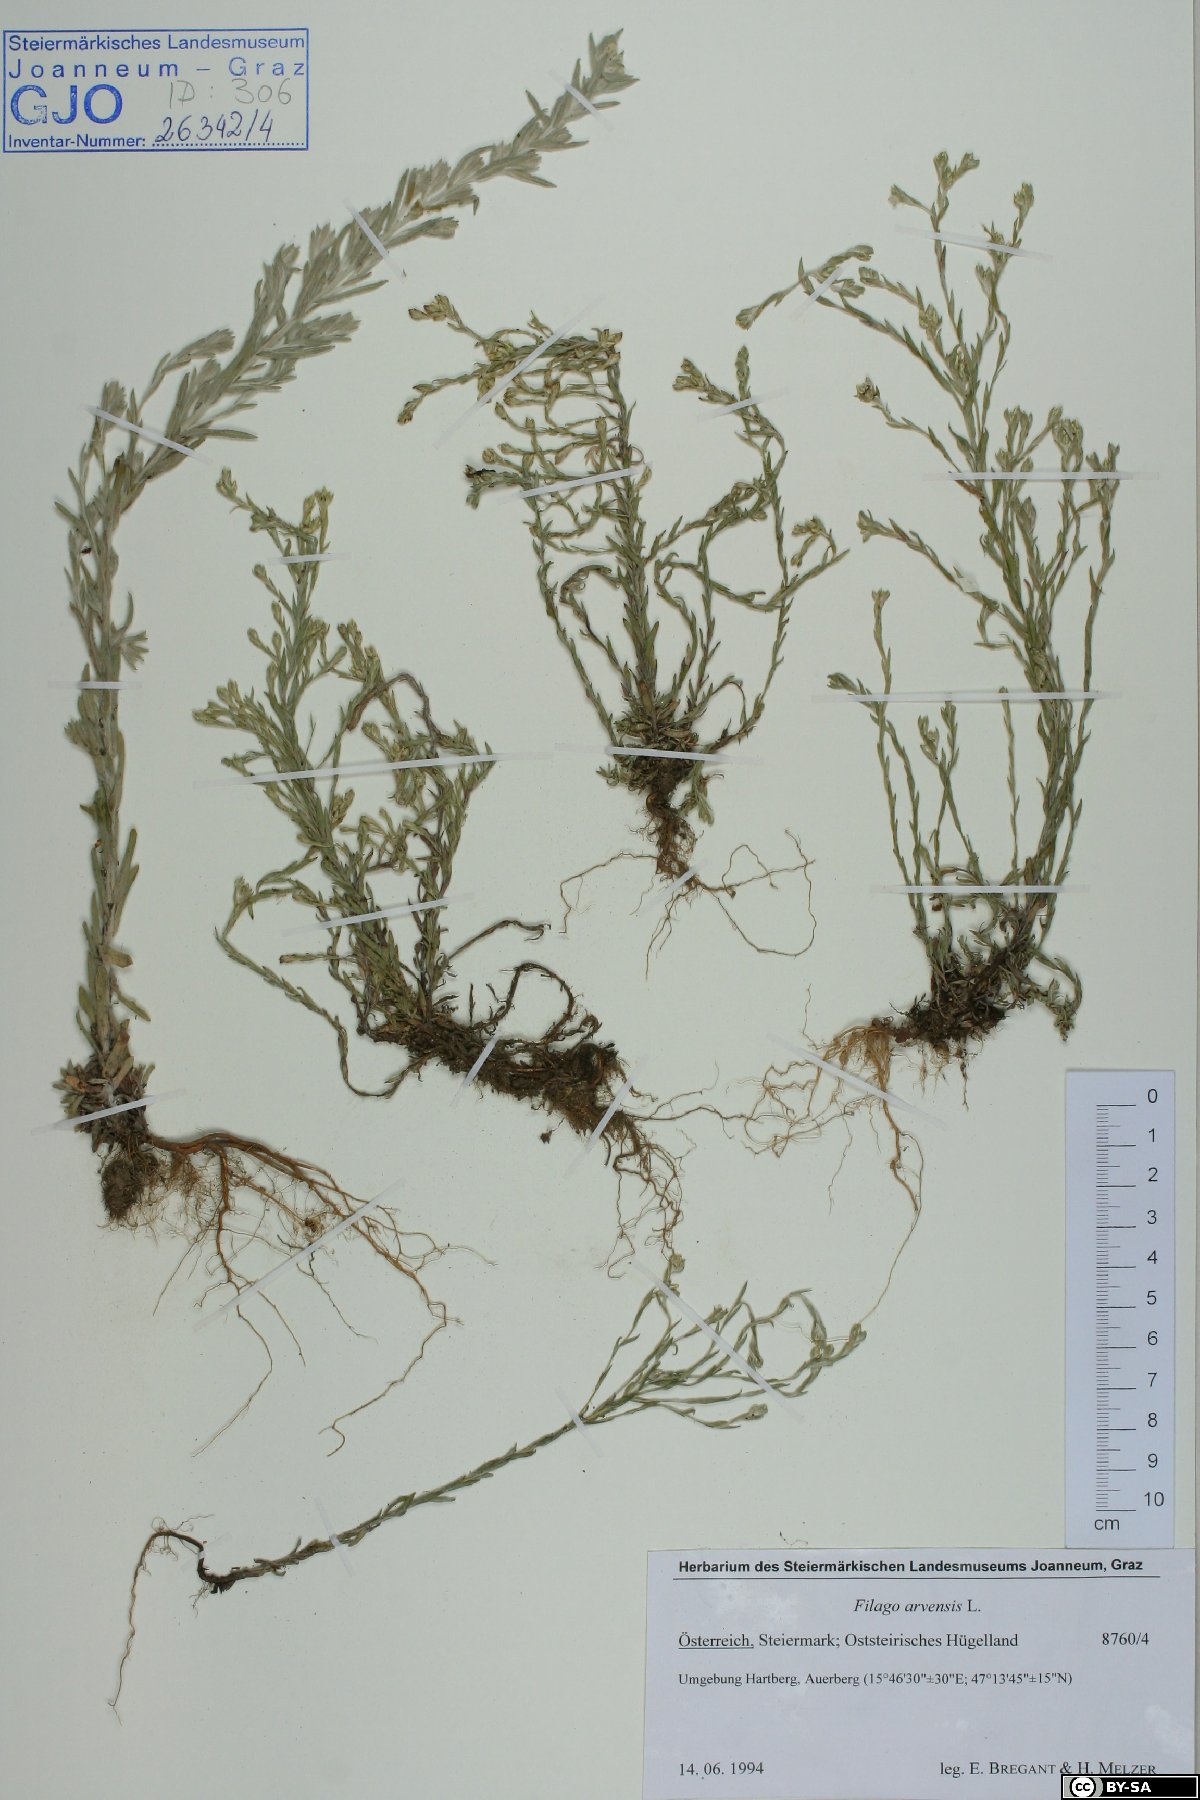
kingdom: Plantae
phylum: Tracheophyta
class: Magnoliopsida
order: Asterales
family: Asteraceae
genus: Filago
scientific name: Filago arvensis
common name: Field cudweed
